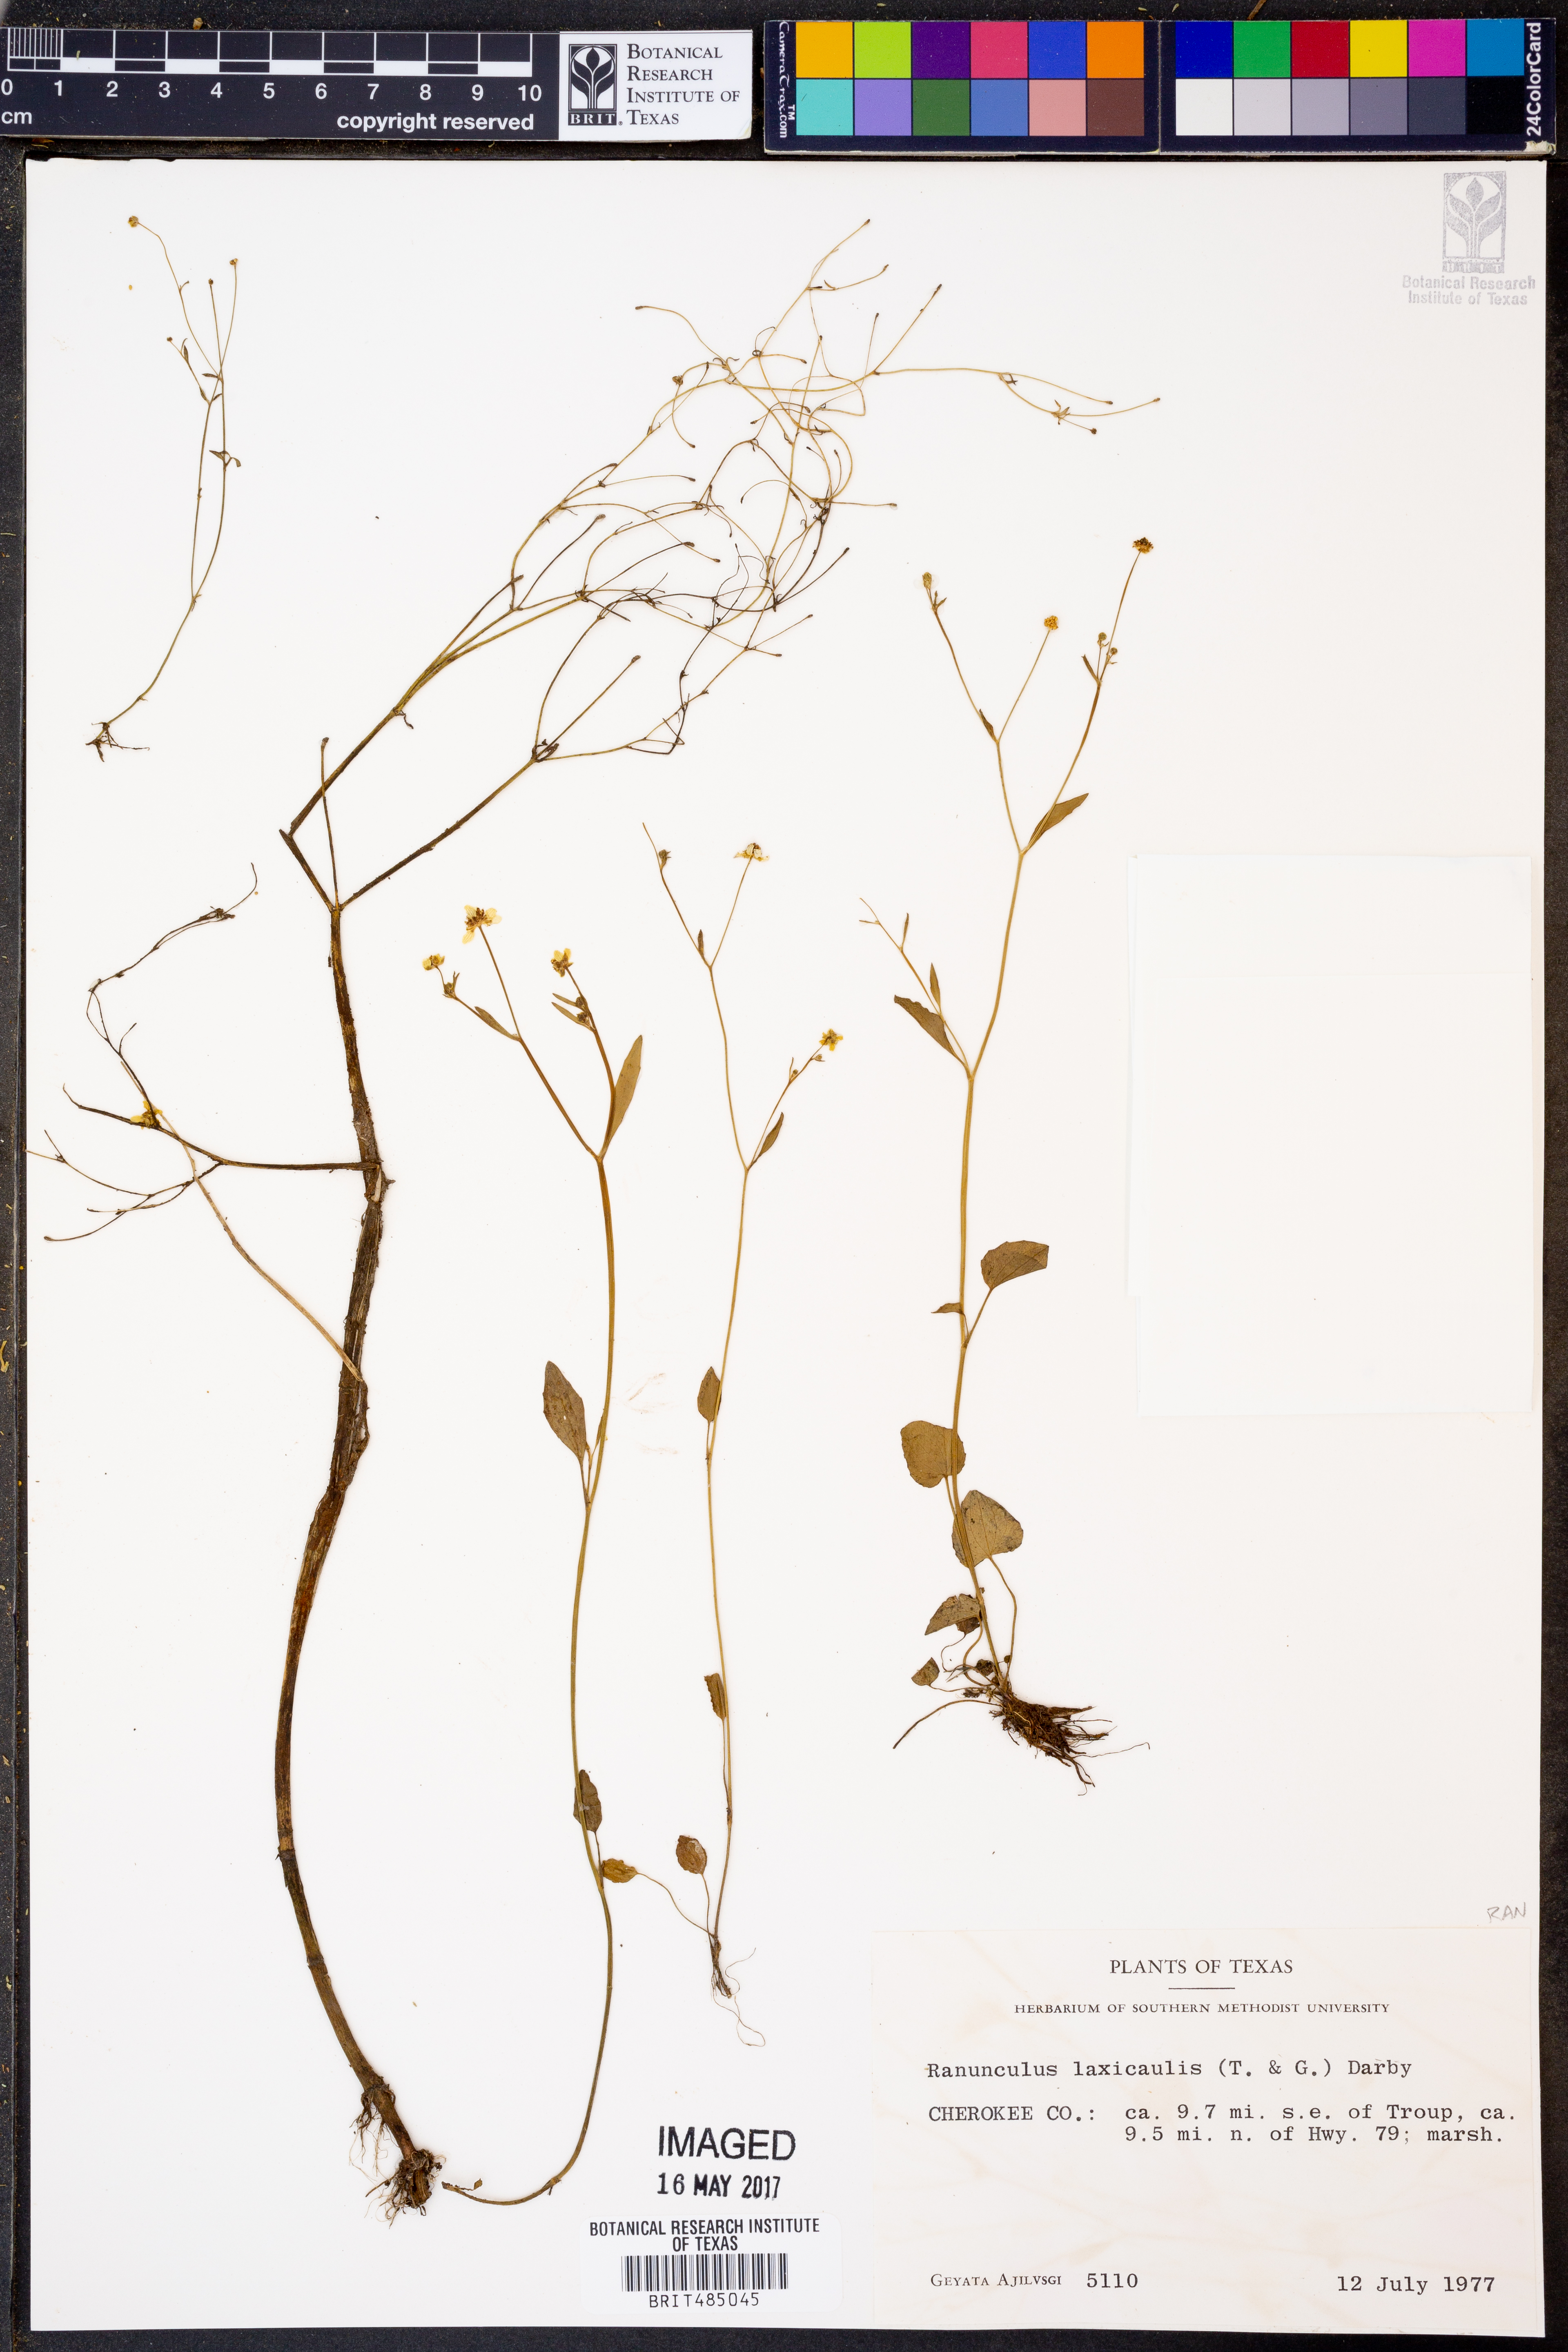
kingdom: Plantae
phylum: Tracheophyta
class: Magnoliopsida
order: Ranunculales
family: Ranunculaceae
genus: Ranunculus
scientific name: Ranunculus laxicaulis
